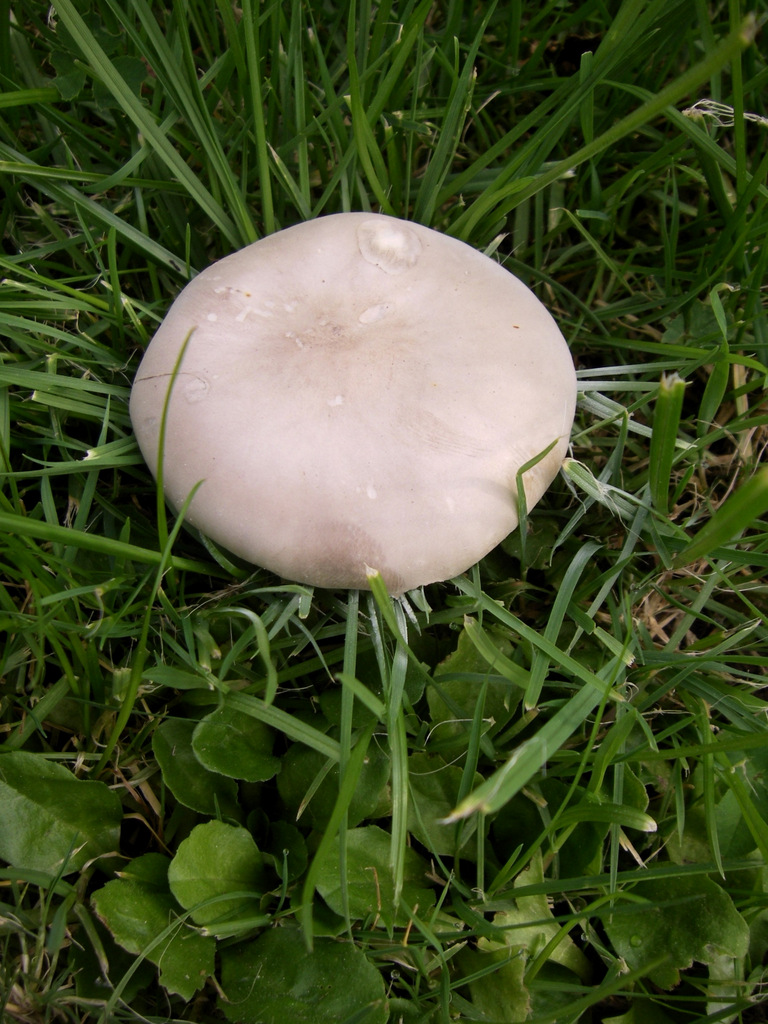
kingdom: Fungi
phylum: Basidiomycota
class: Agaricomycetes
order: Agaricales
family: Tricholomataceae
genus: Melanoleuca
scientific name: Melanoleuca
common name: munkehat
